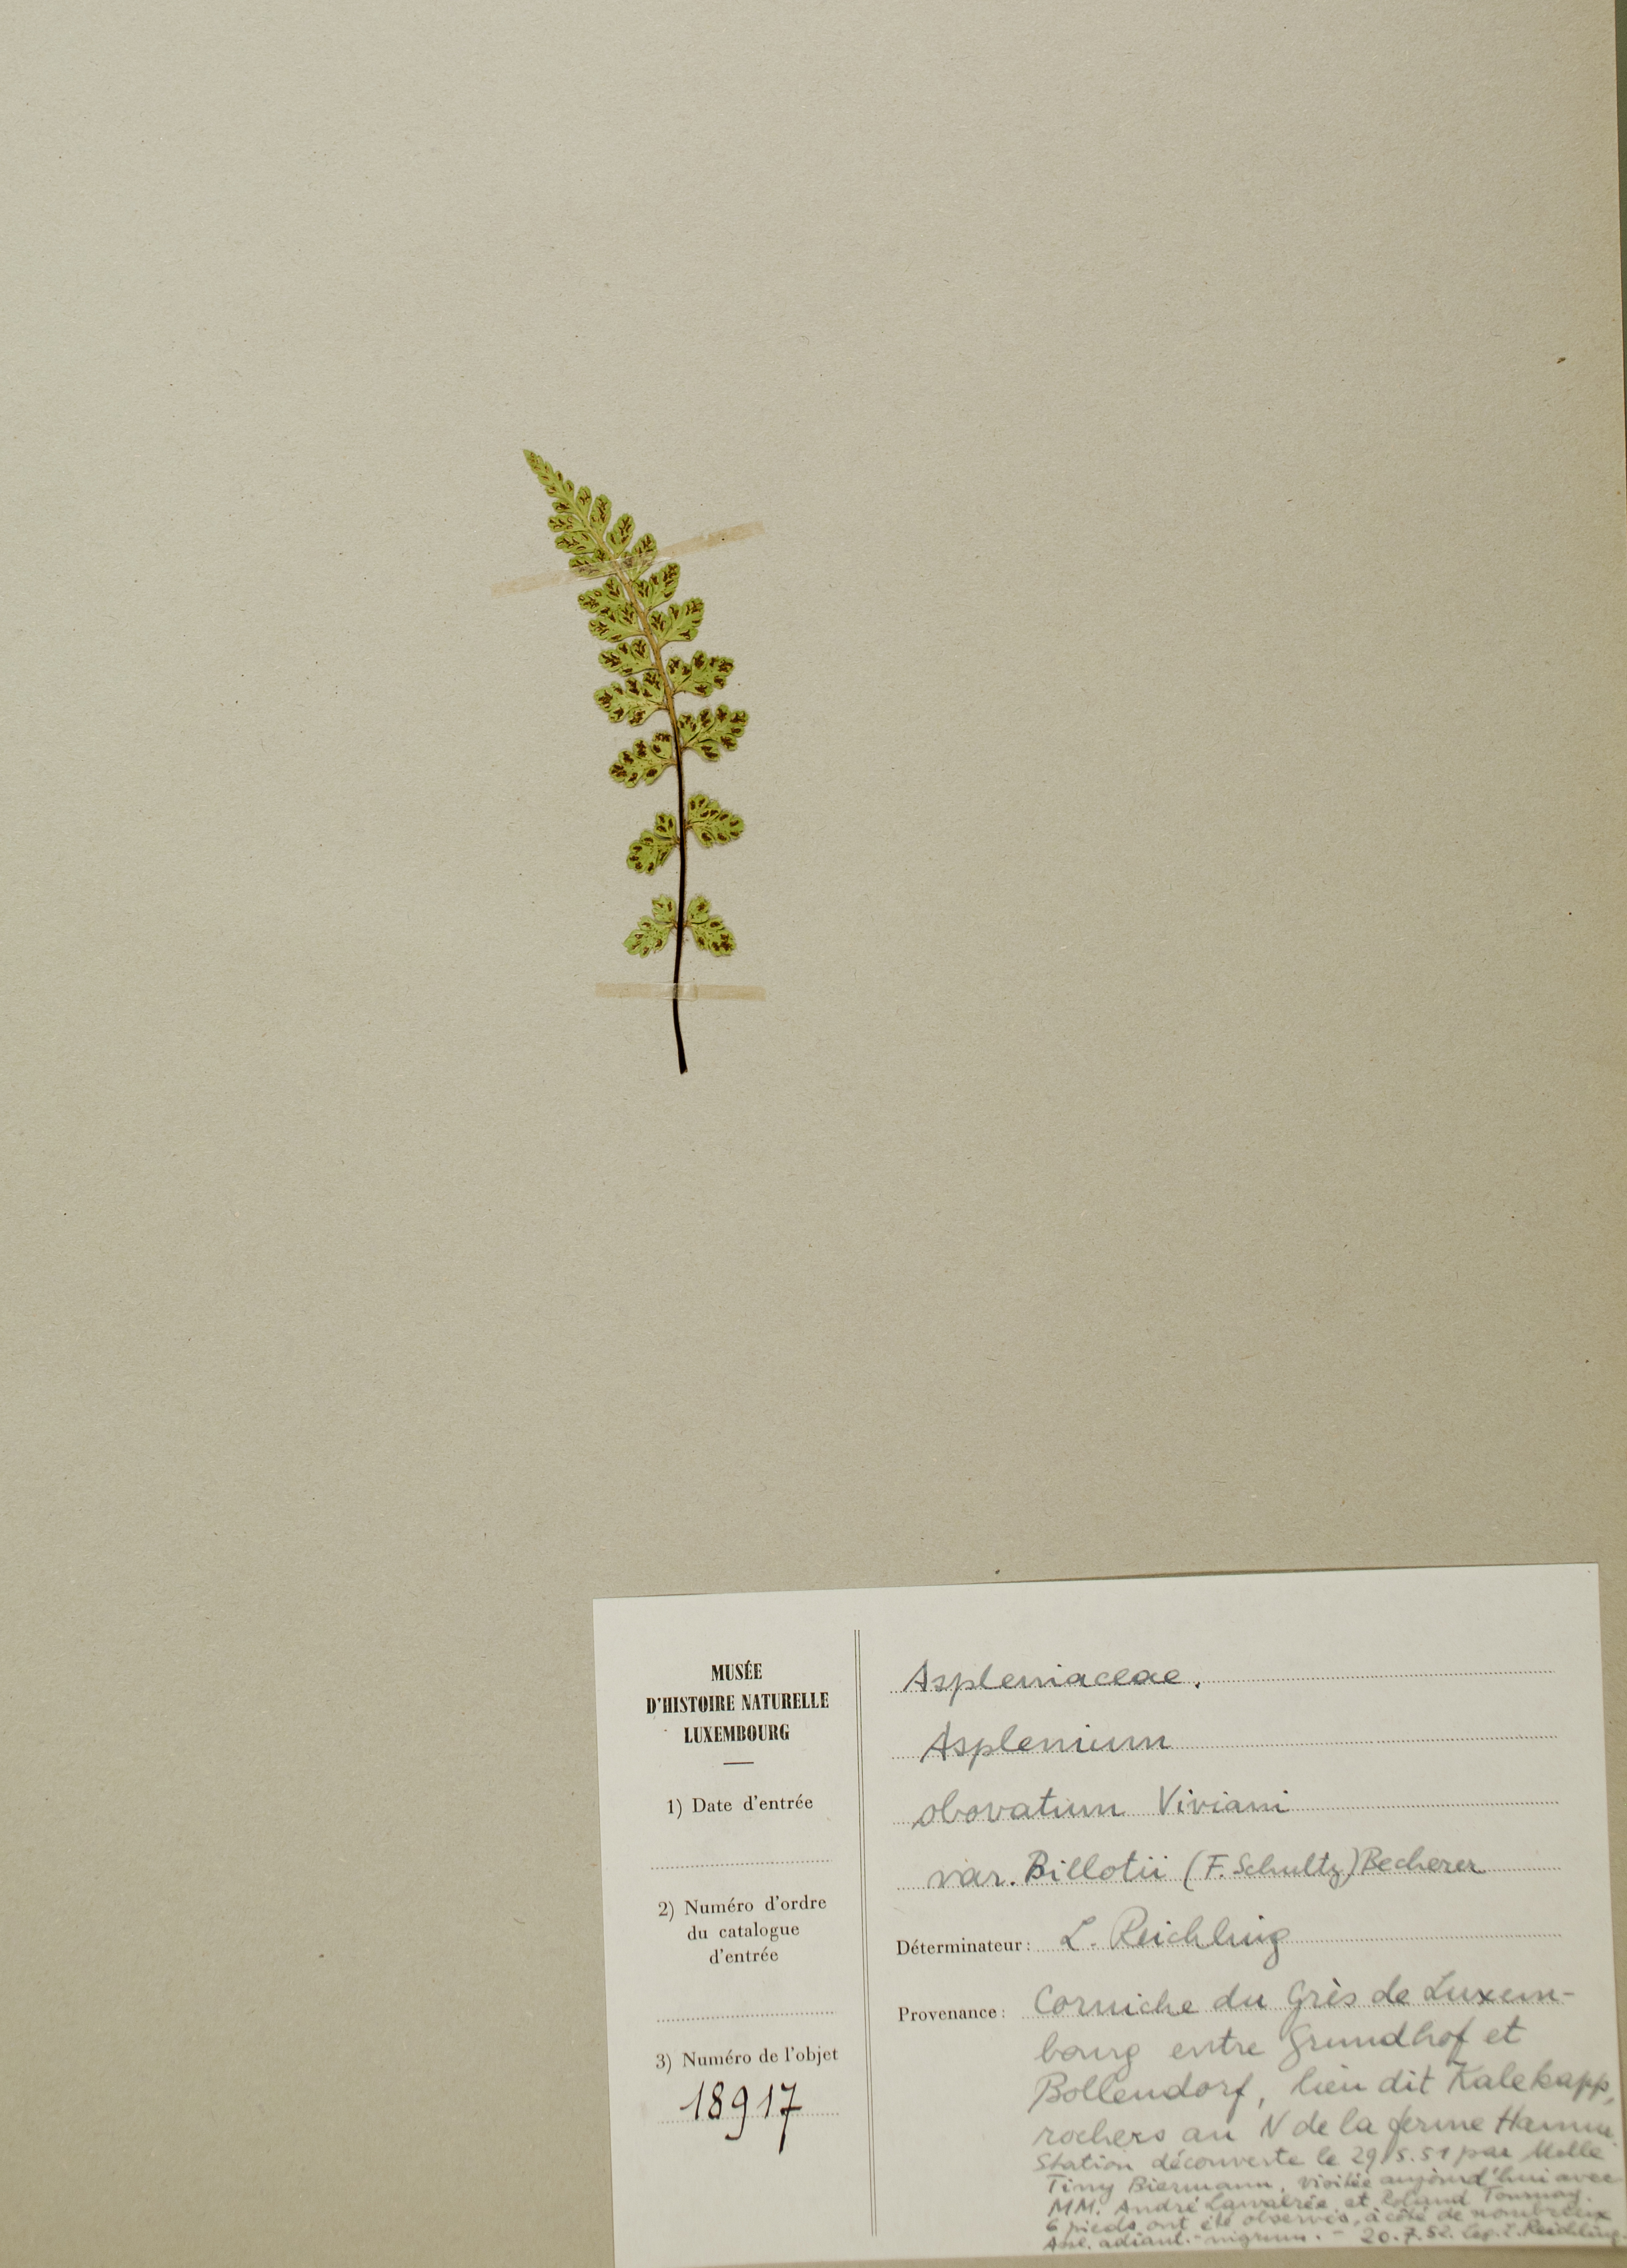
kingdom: Plantae
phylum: Tracheophyta
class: Polypodiopsida
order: Polypodiales
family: Aspleniaceae
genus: Asplenium
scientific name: Asplenium obovatum
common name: Lanceolate spleenwort
